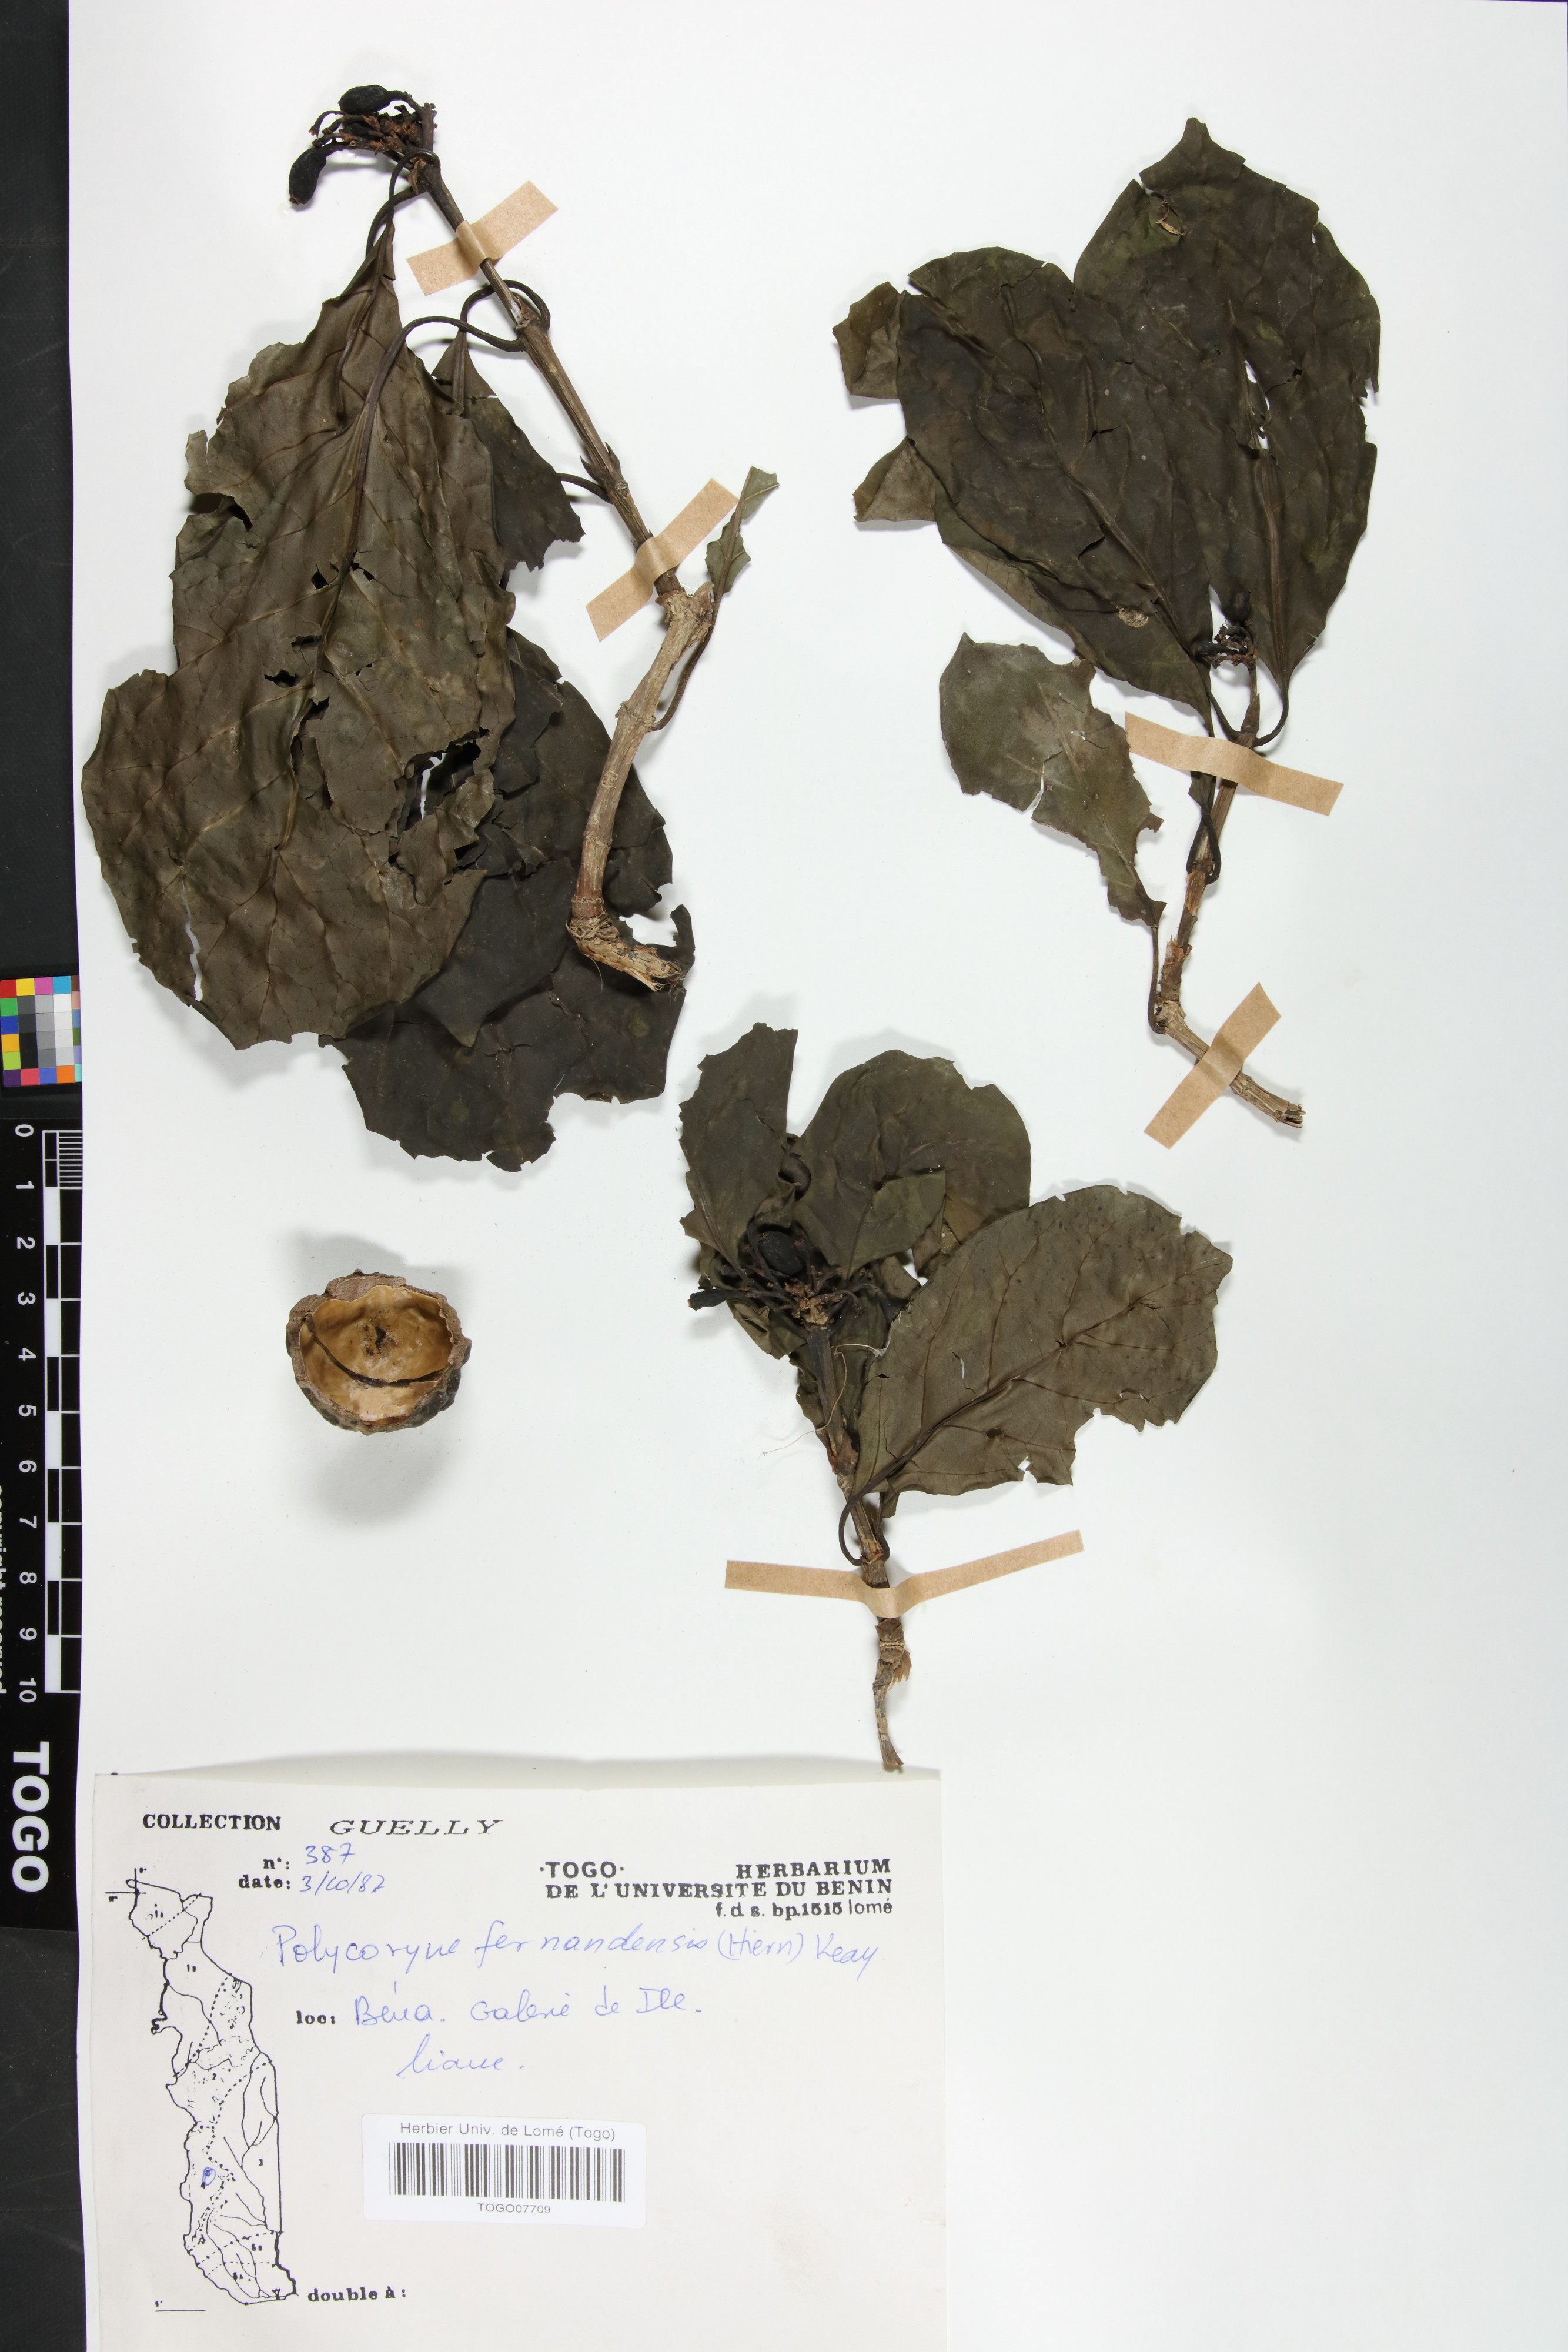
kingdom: Plantae
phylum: Tracheophyta
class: Magnoliopsida
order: Gentianales
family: Rubiaceae
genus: Pleiocoryne
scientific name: Pleiocoryne fernandensis
